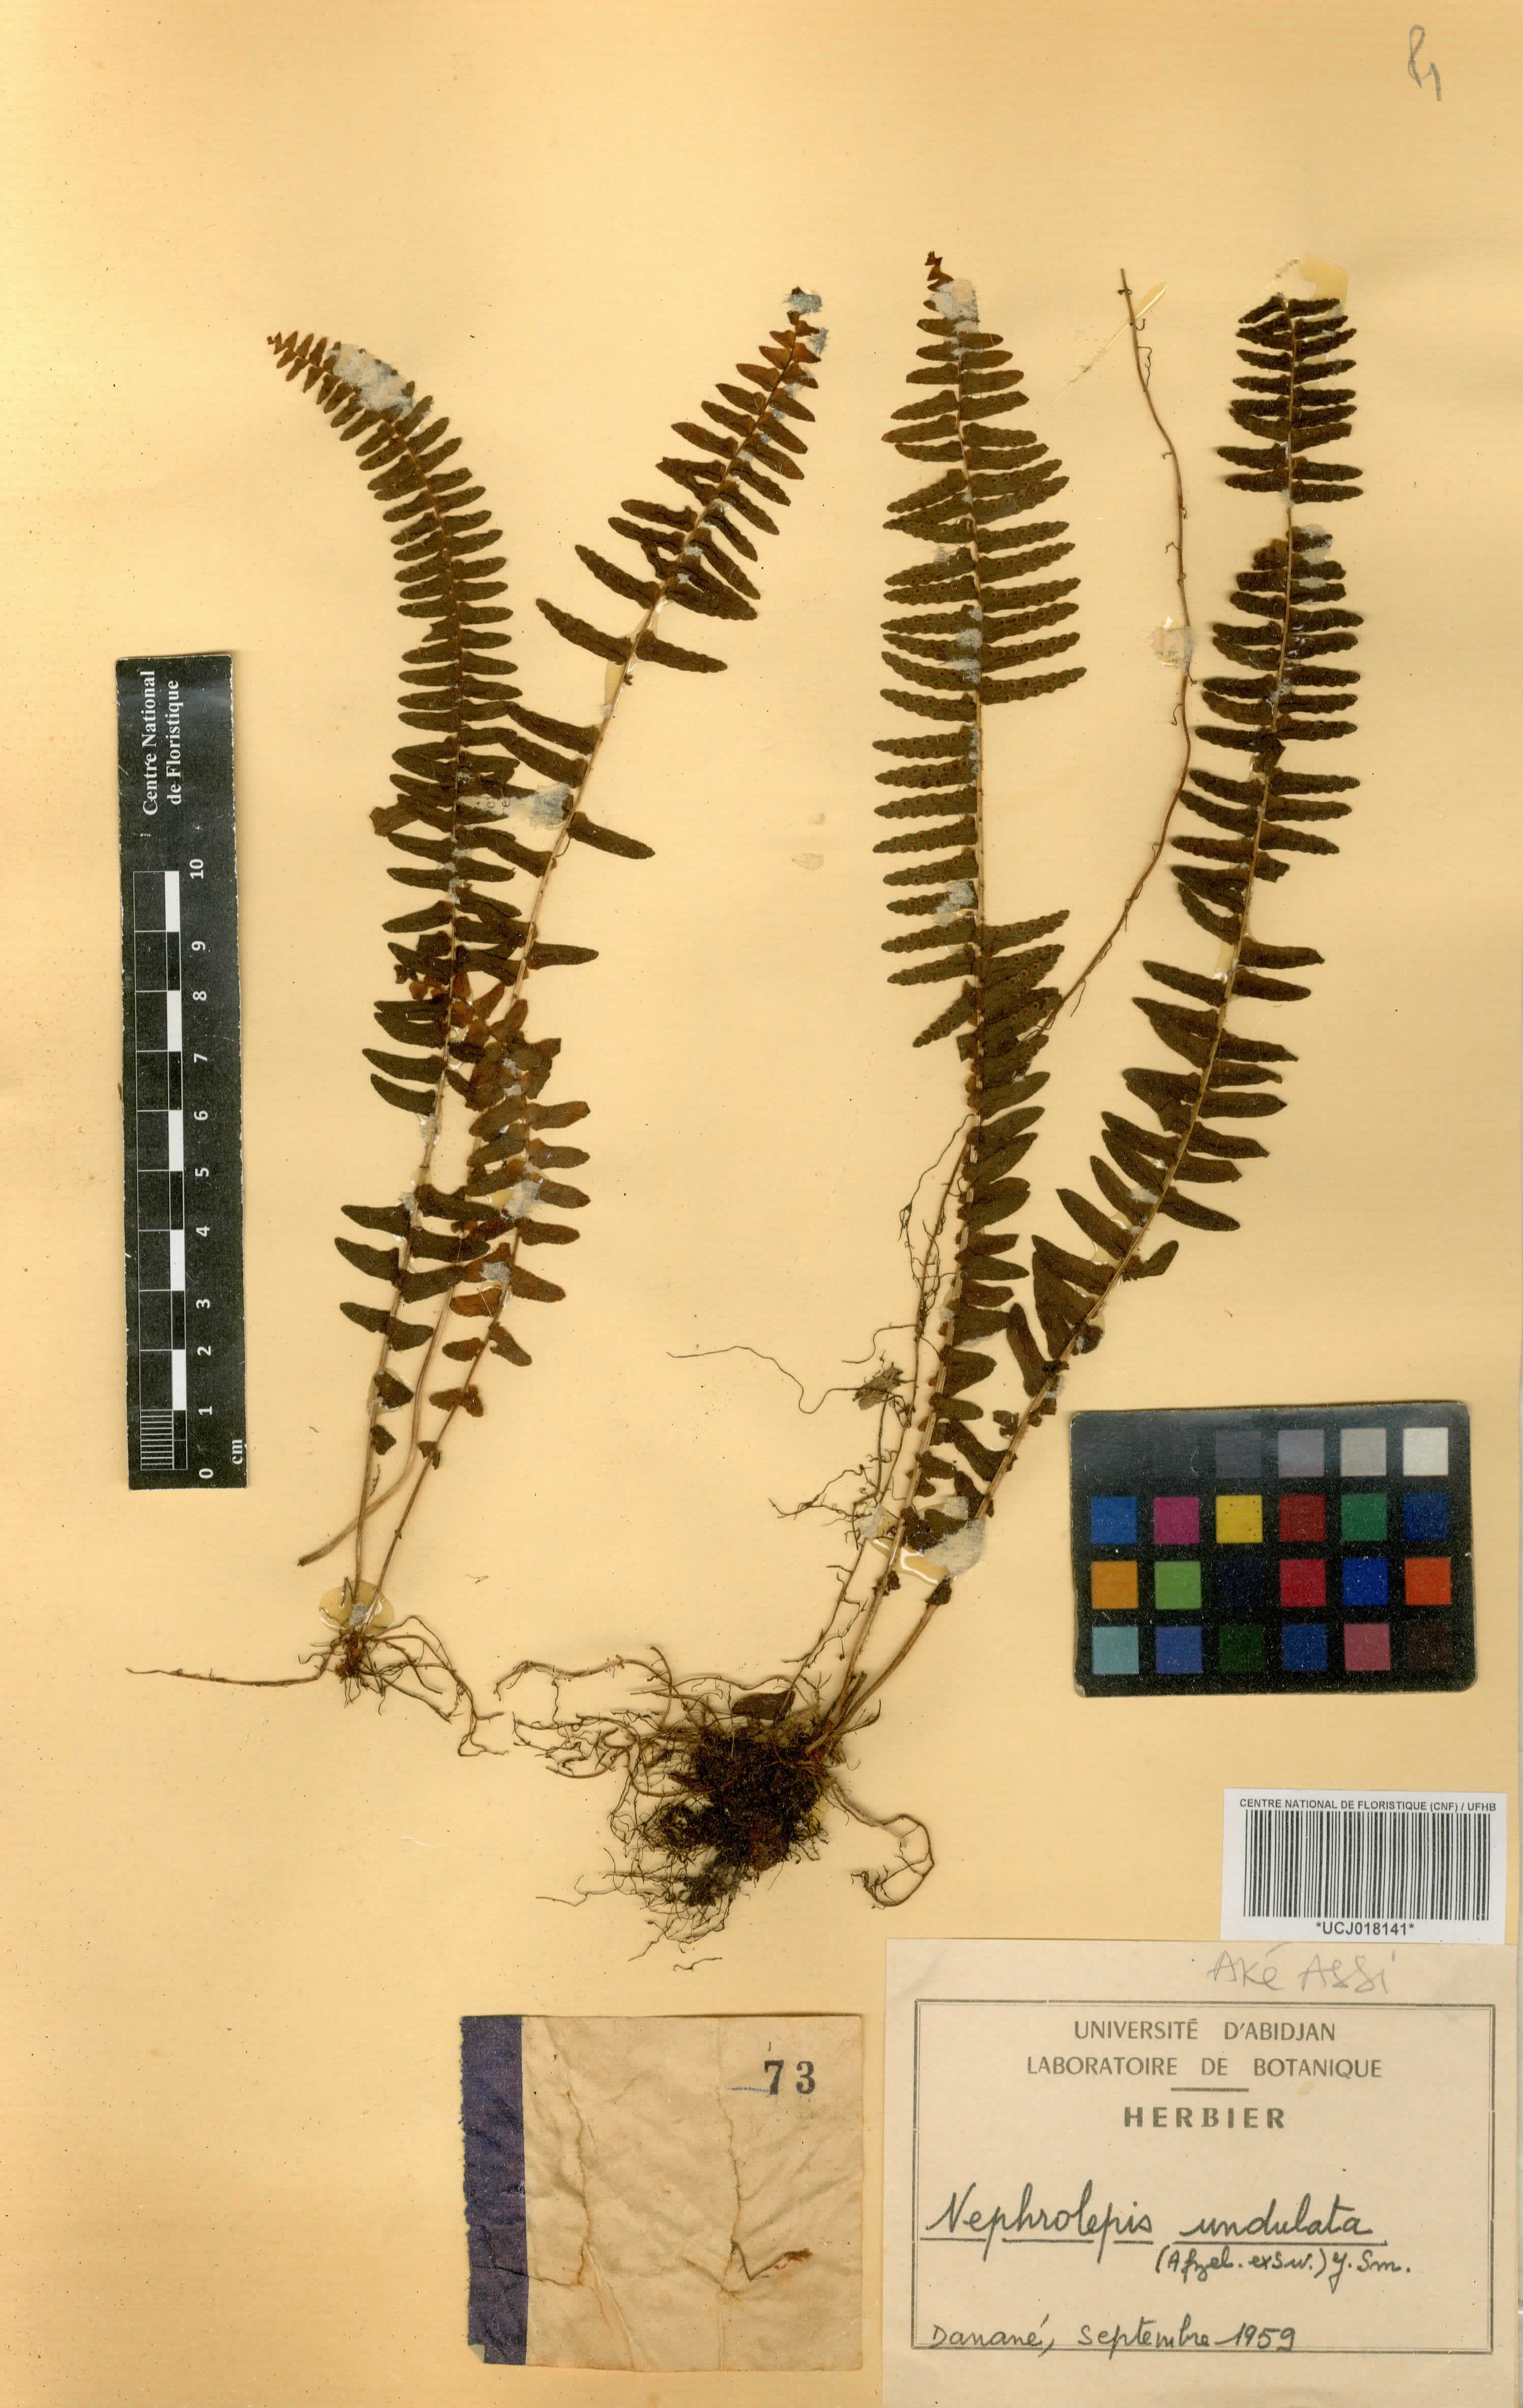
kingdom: Plantae
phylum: Tracheophyta
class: Polypodiopsida
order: Polypodiales
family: Nephrolepidaceae
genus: Nephrolepis
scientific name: Nephrolepis undulata
